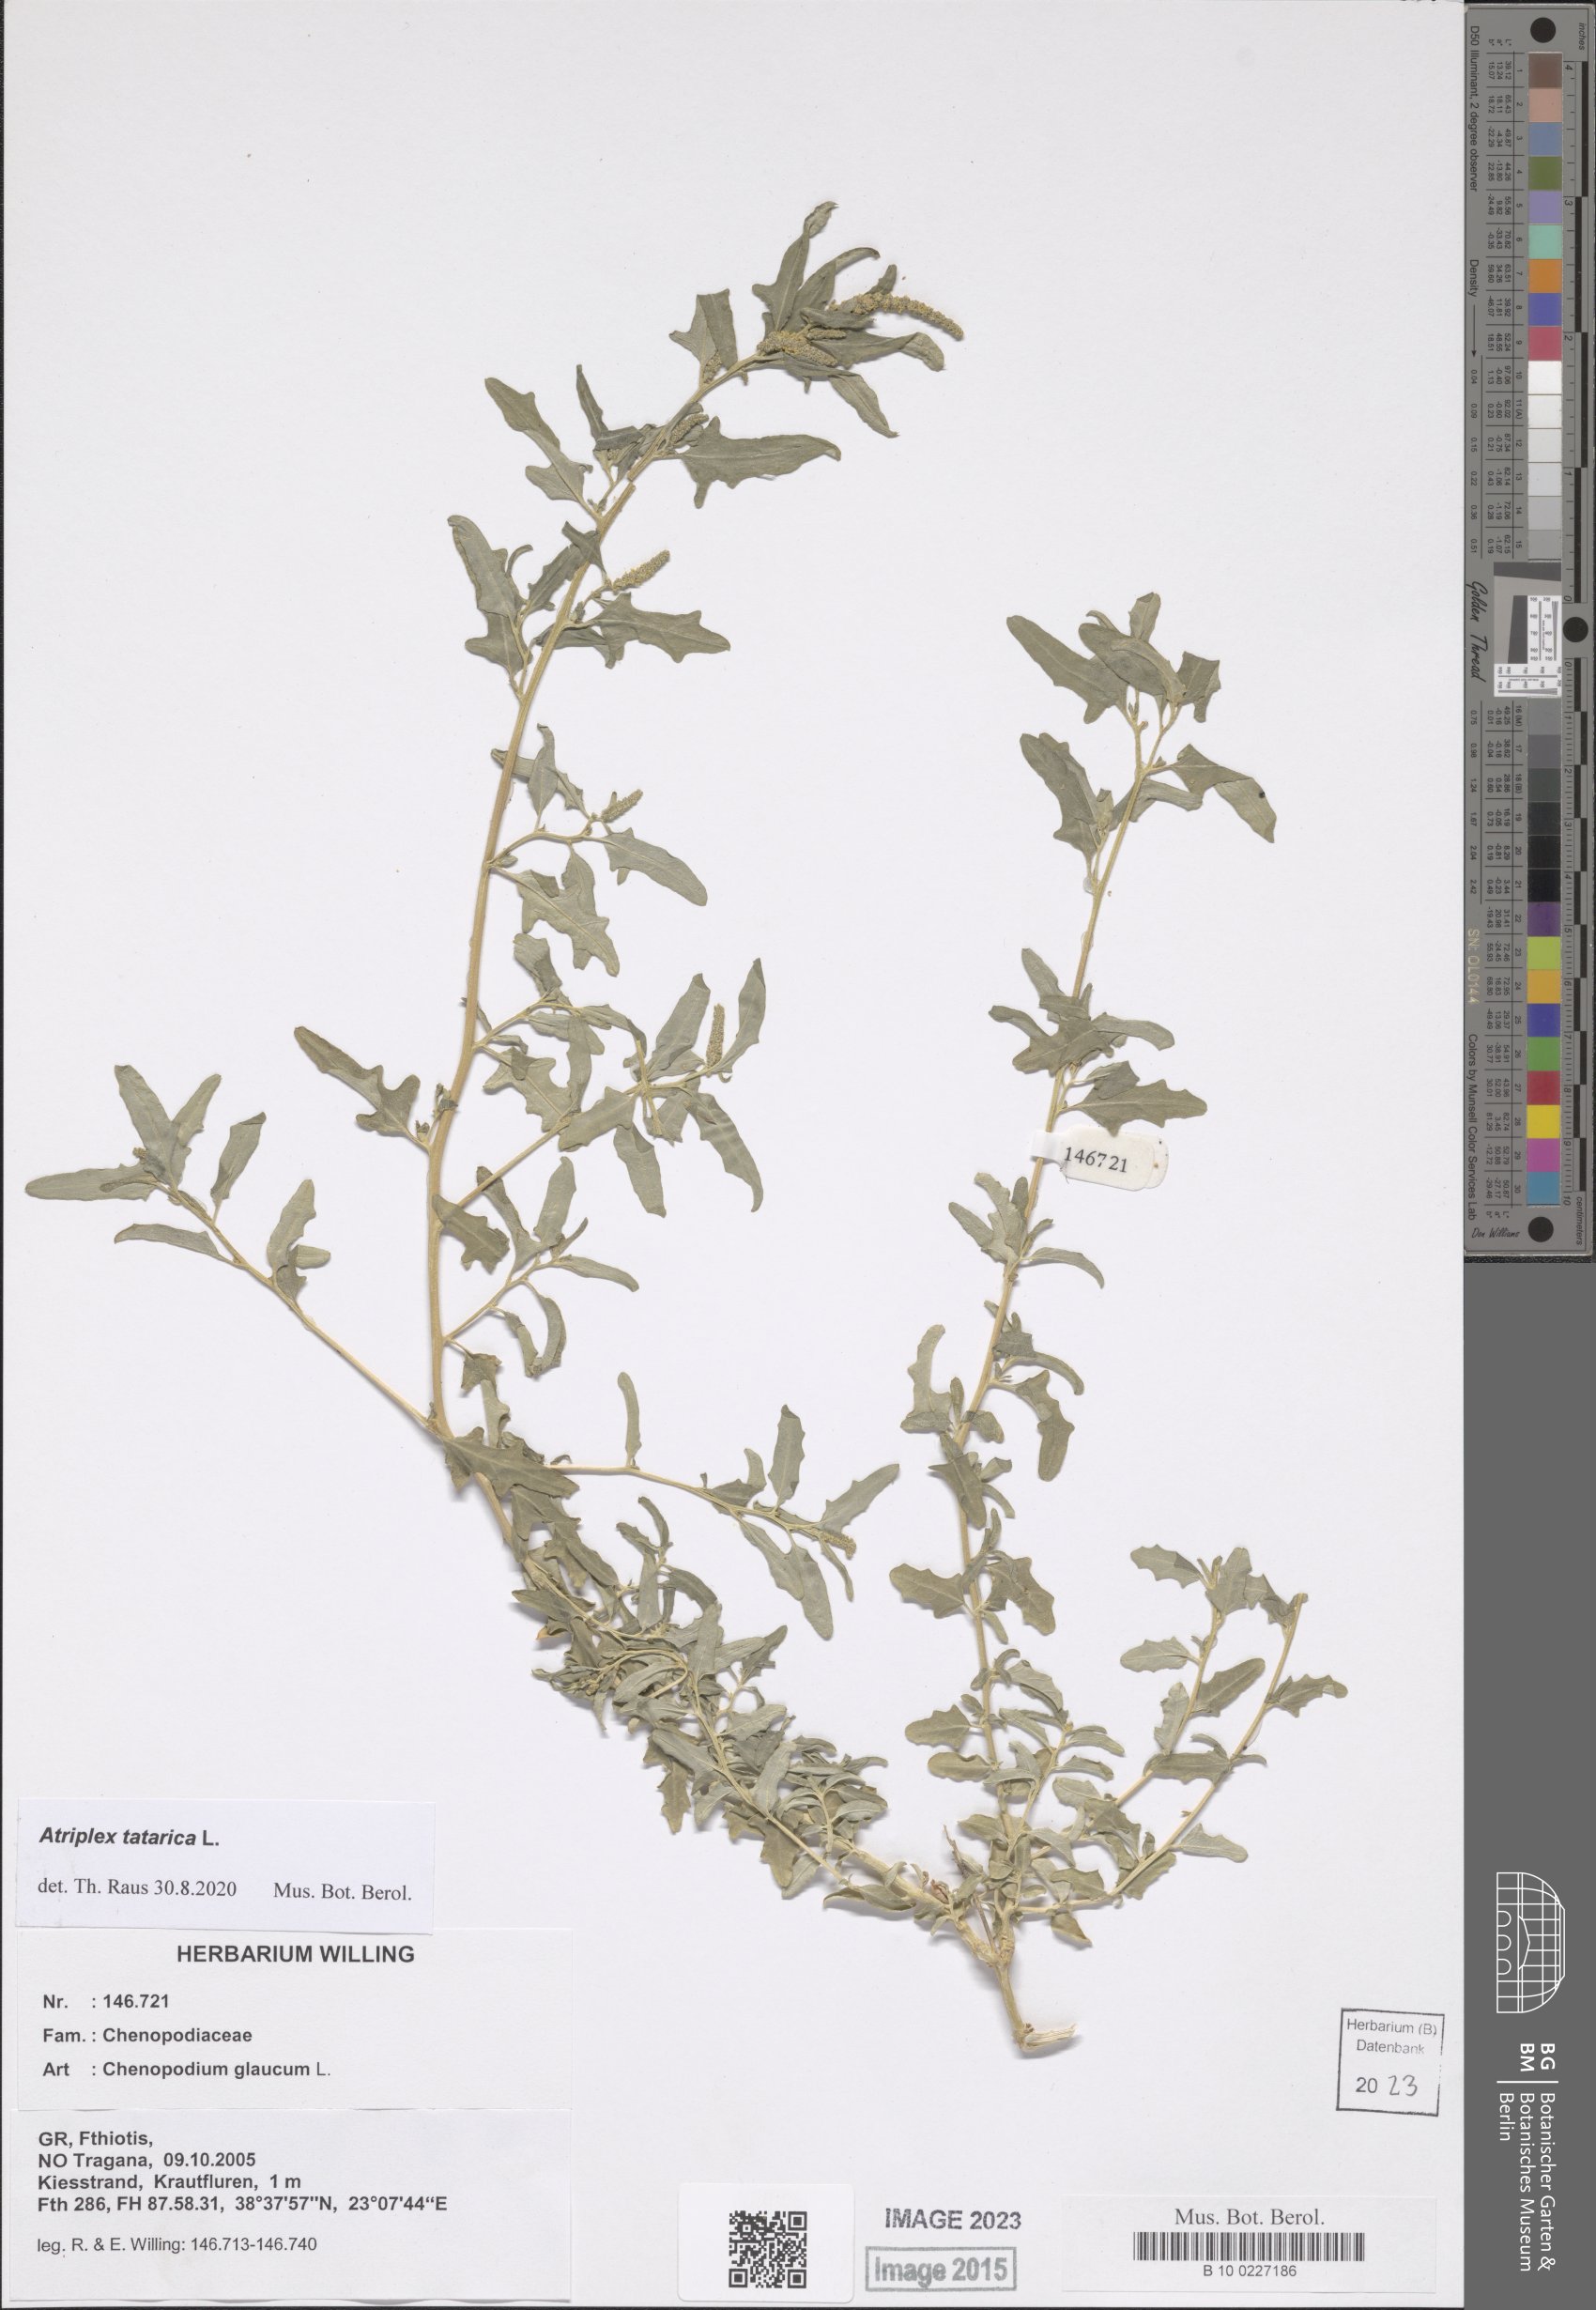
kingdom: Plantae
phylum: Tracheophyta
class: Magnoliopsida
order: Caryophyllales
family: Amaranthaceae
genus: Atriplex
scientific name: Atriplex tatarica
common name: Tatarian orache
